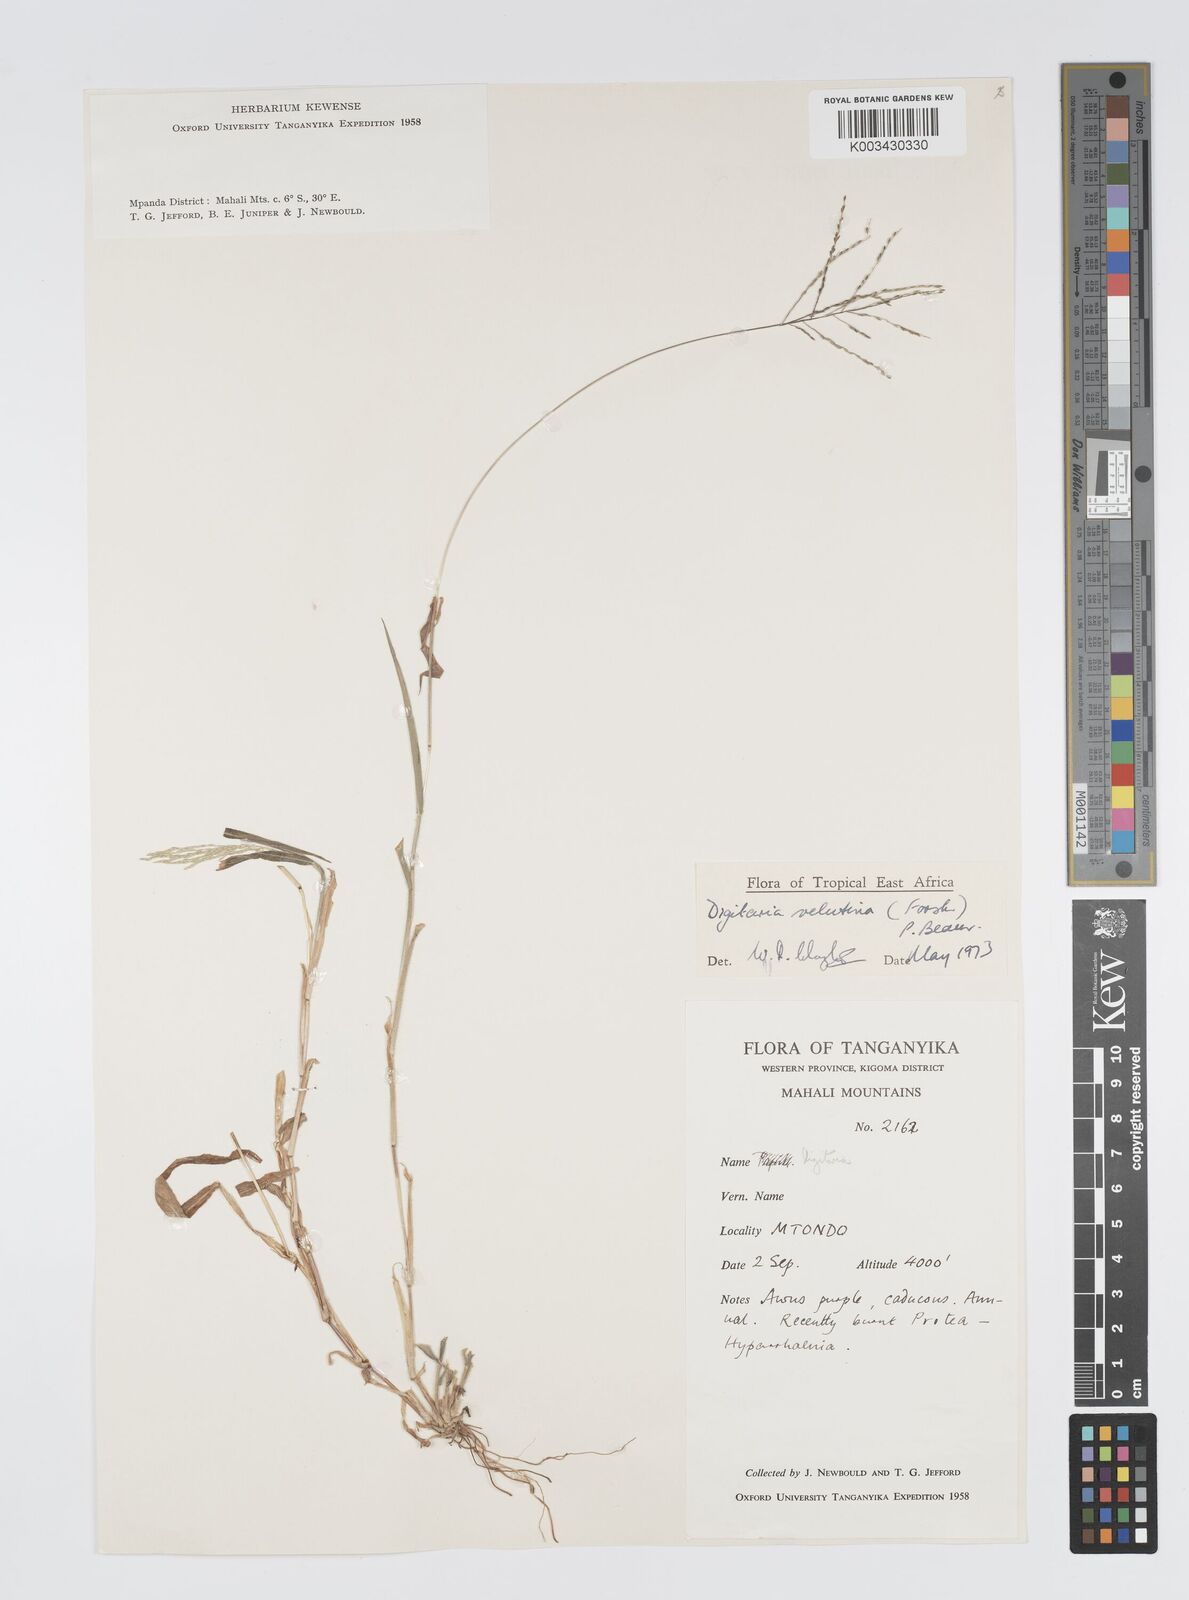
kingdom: Plantae
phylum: Tracheophyta
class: Liliopsida
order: Poales
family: Poaceae
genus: Digitaria
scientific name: Digitaria velutina
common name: Long-plume finger grass
